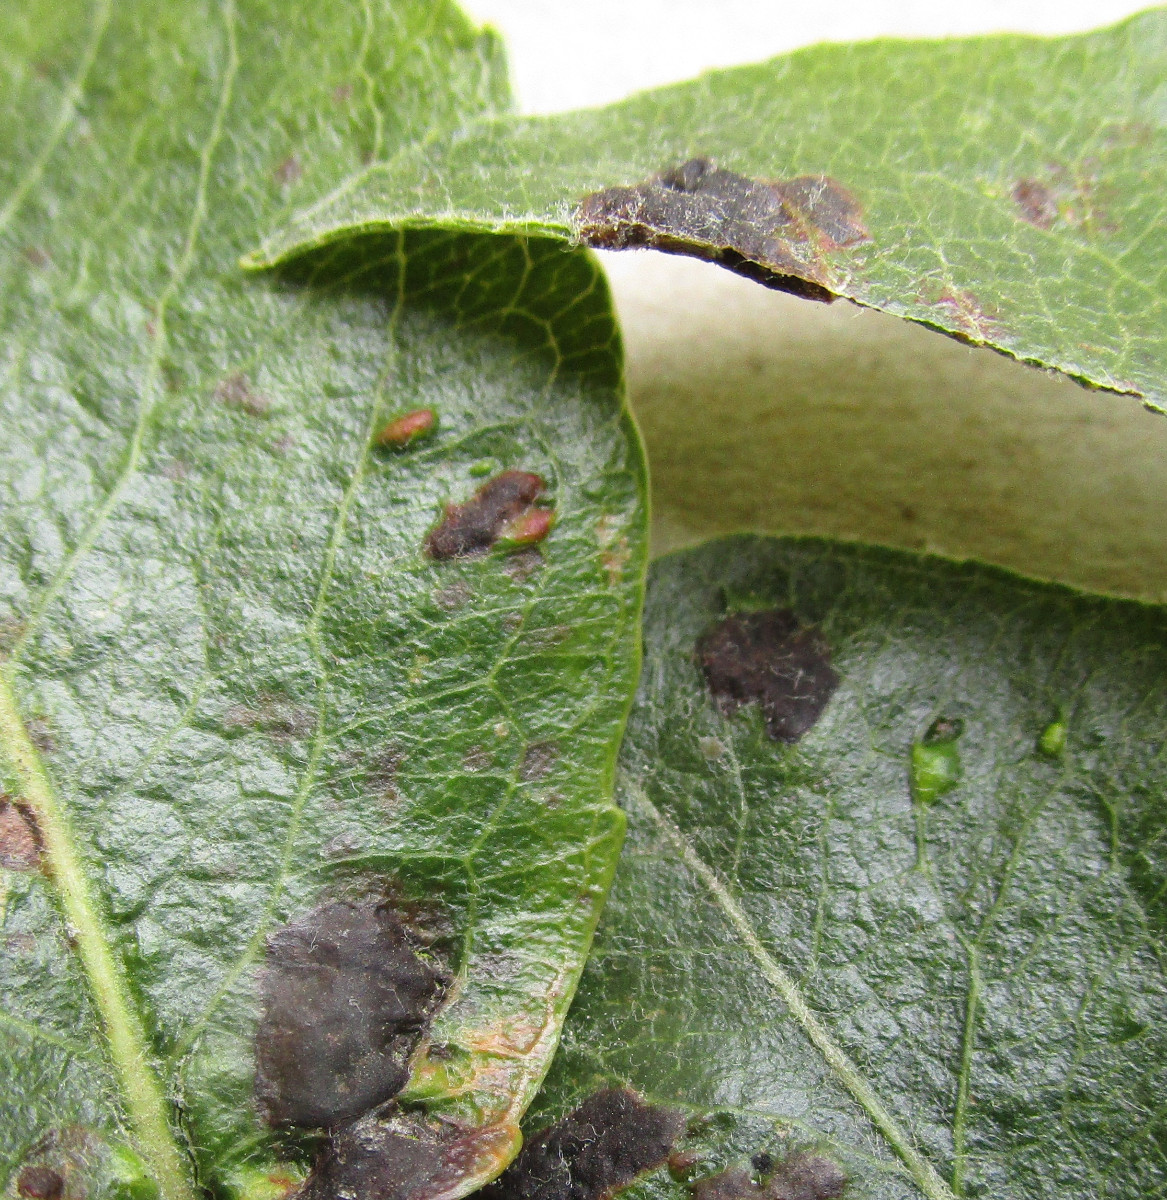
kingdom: Fungi
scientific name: Fungi
